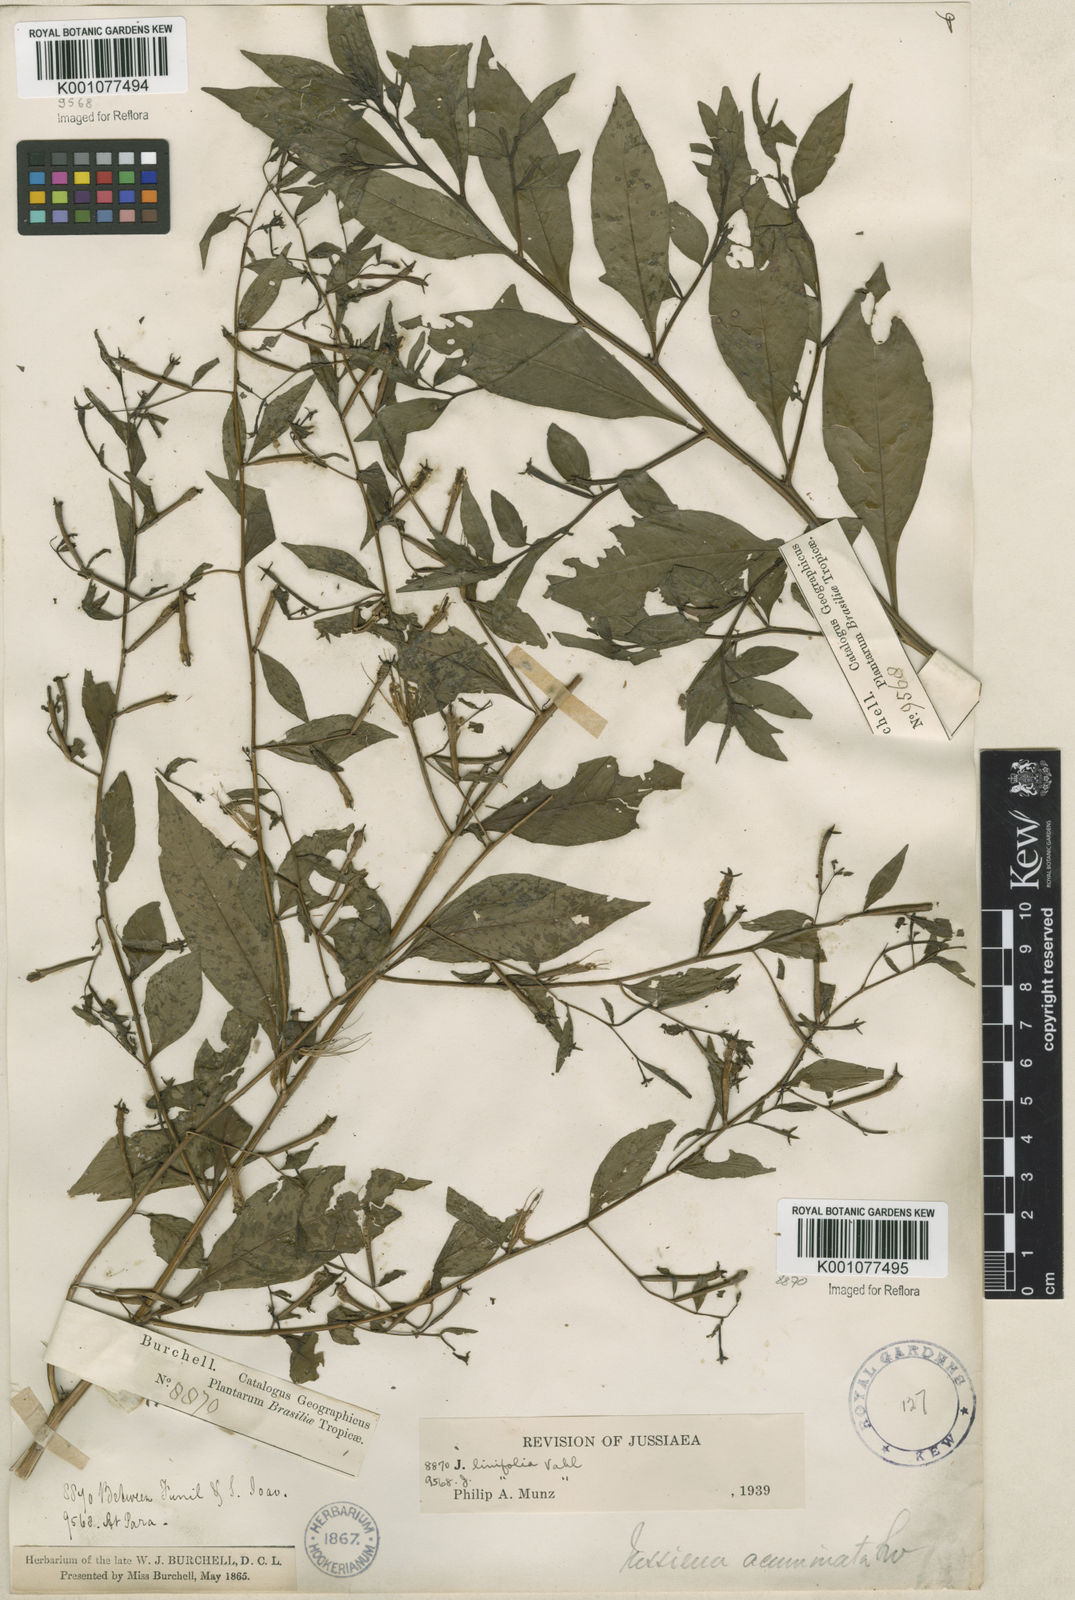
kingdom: Plantae
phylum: Tracheophyta
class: Magnoliopsida
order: Myrtales
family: Onagraceae
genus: Ludwigia
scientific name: Ludwigia hyssopifolia
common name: Linear leaf water primrose
